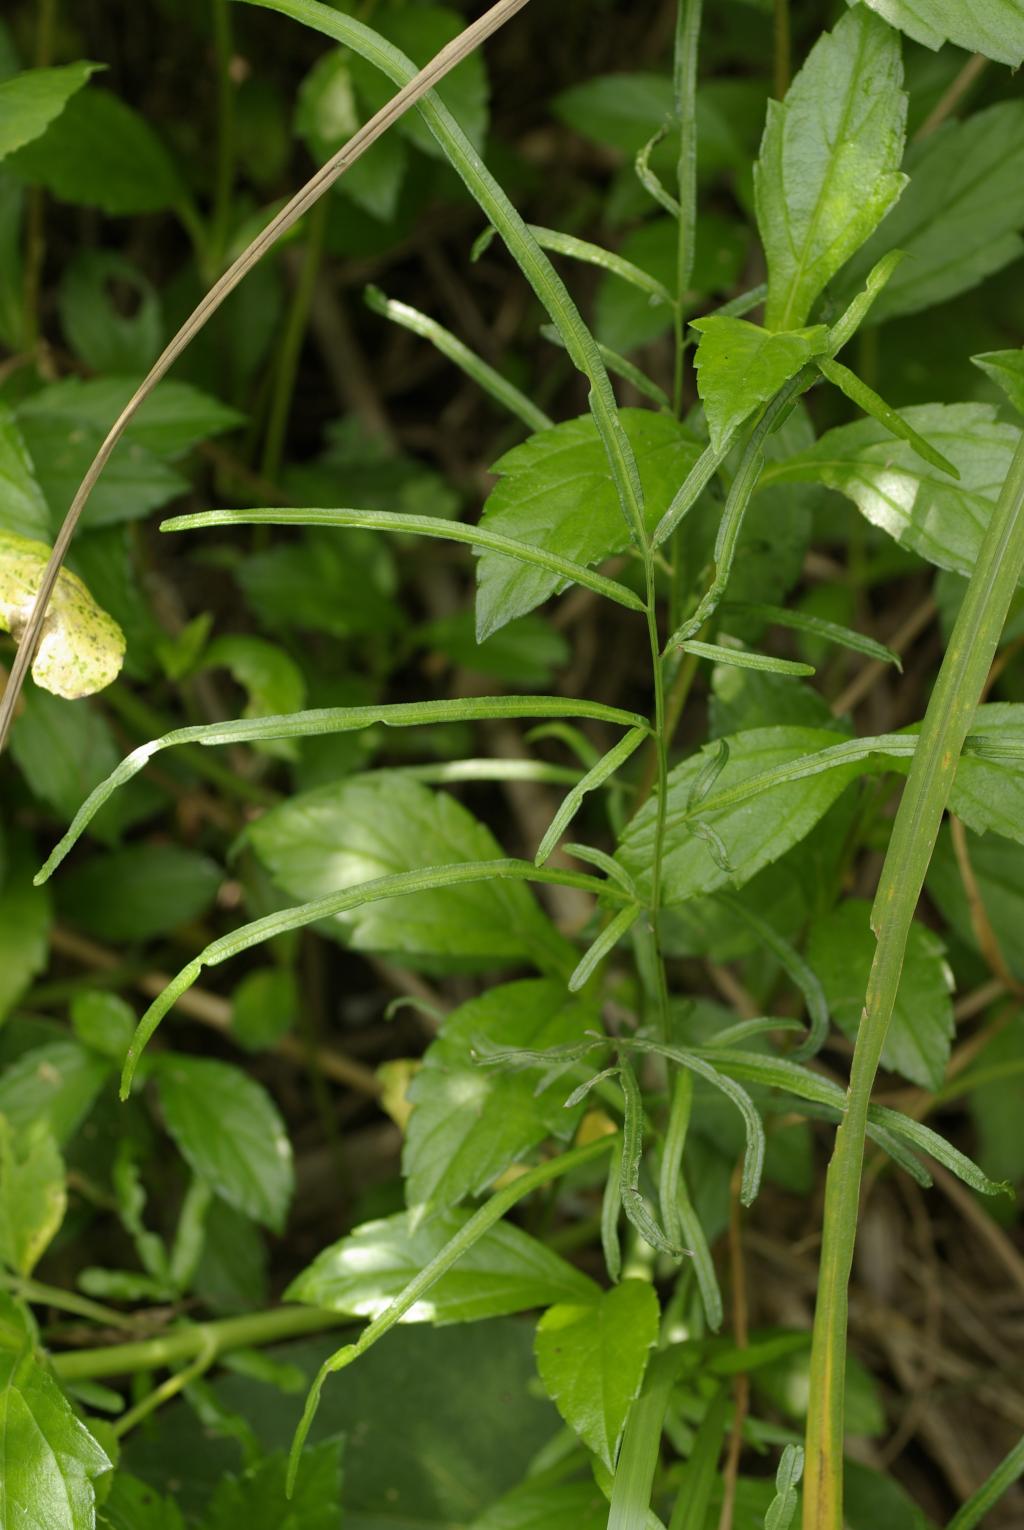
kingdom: Plantae
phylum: Tracheophyta
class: Polypodiopsida
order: Polypodiales
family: Pteridaceae
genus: Pteris
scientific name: Pteris ensiformis
